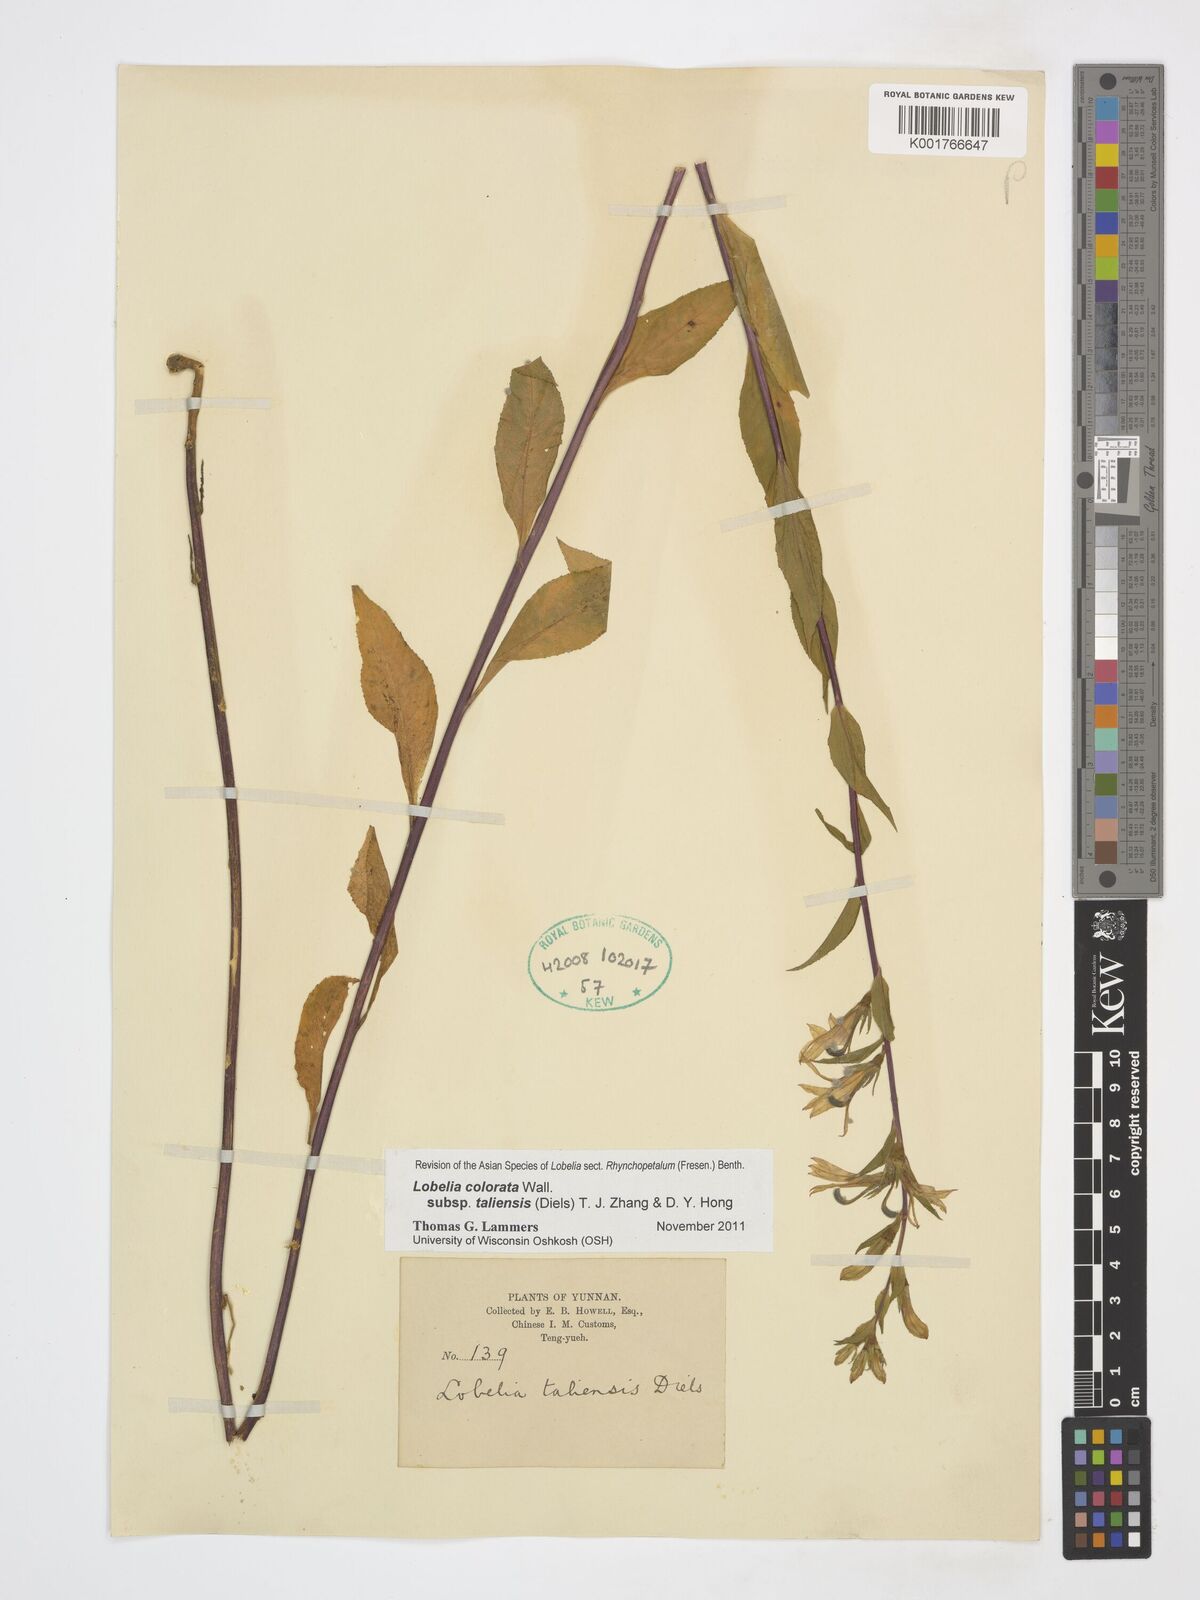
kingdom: Plantae
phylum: Tracheophyta
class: Magnoliopsida
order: Asterales
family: Campanulaceae
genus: Lobelia
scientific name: Lobelia taliensis
